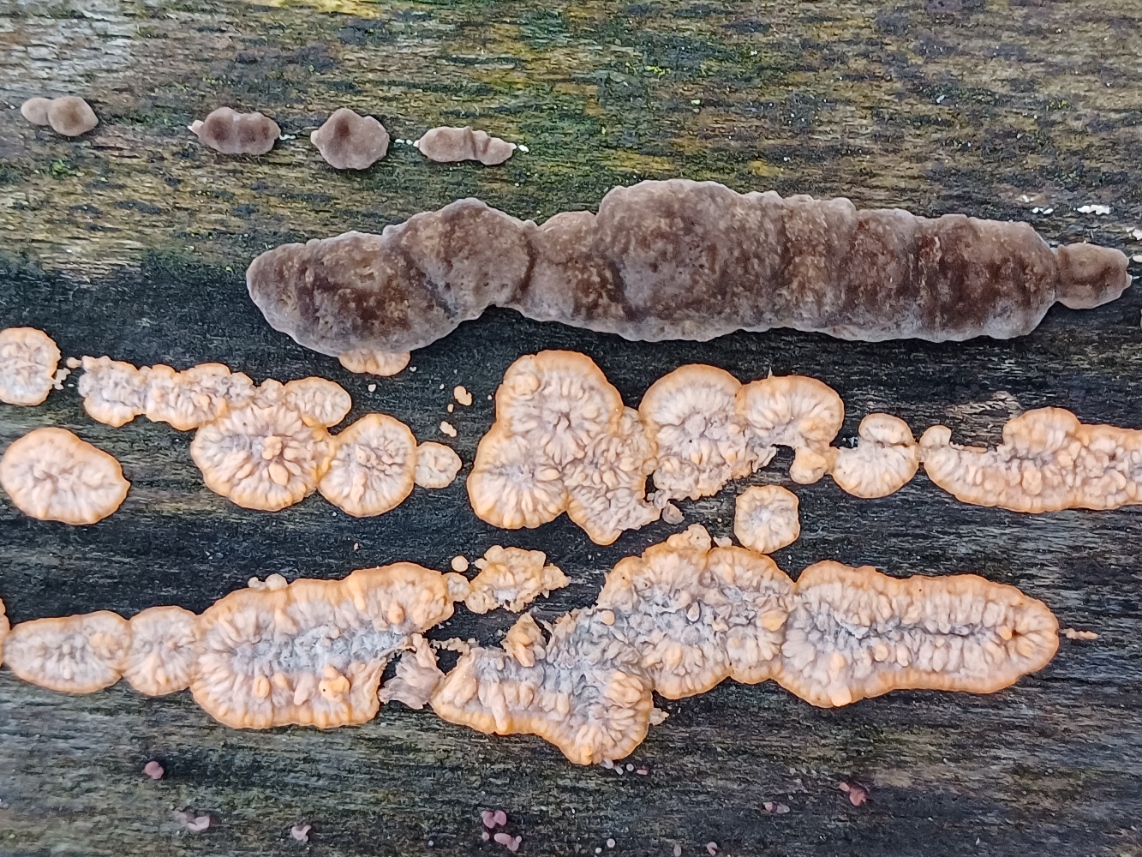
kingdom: Fungi
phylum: Basidiomycota
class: Agaricomycetes
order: Polyporales
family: Meruliaceae
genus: Phlebia
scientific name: Phlebia radiata
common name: stråle-åresvamp
